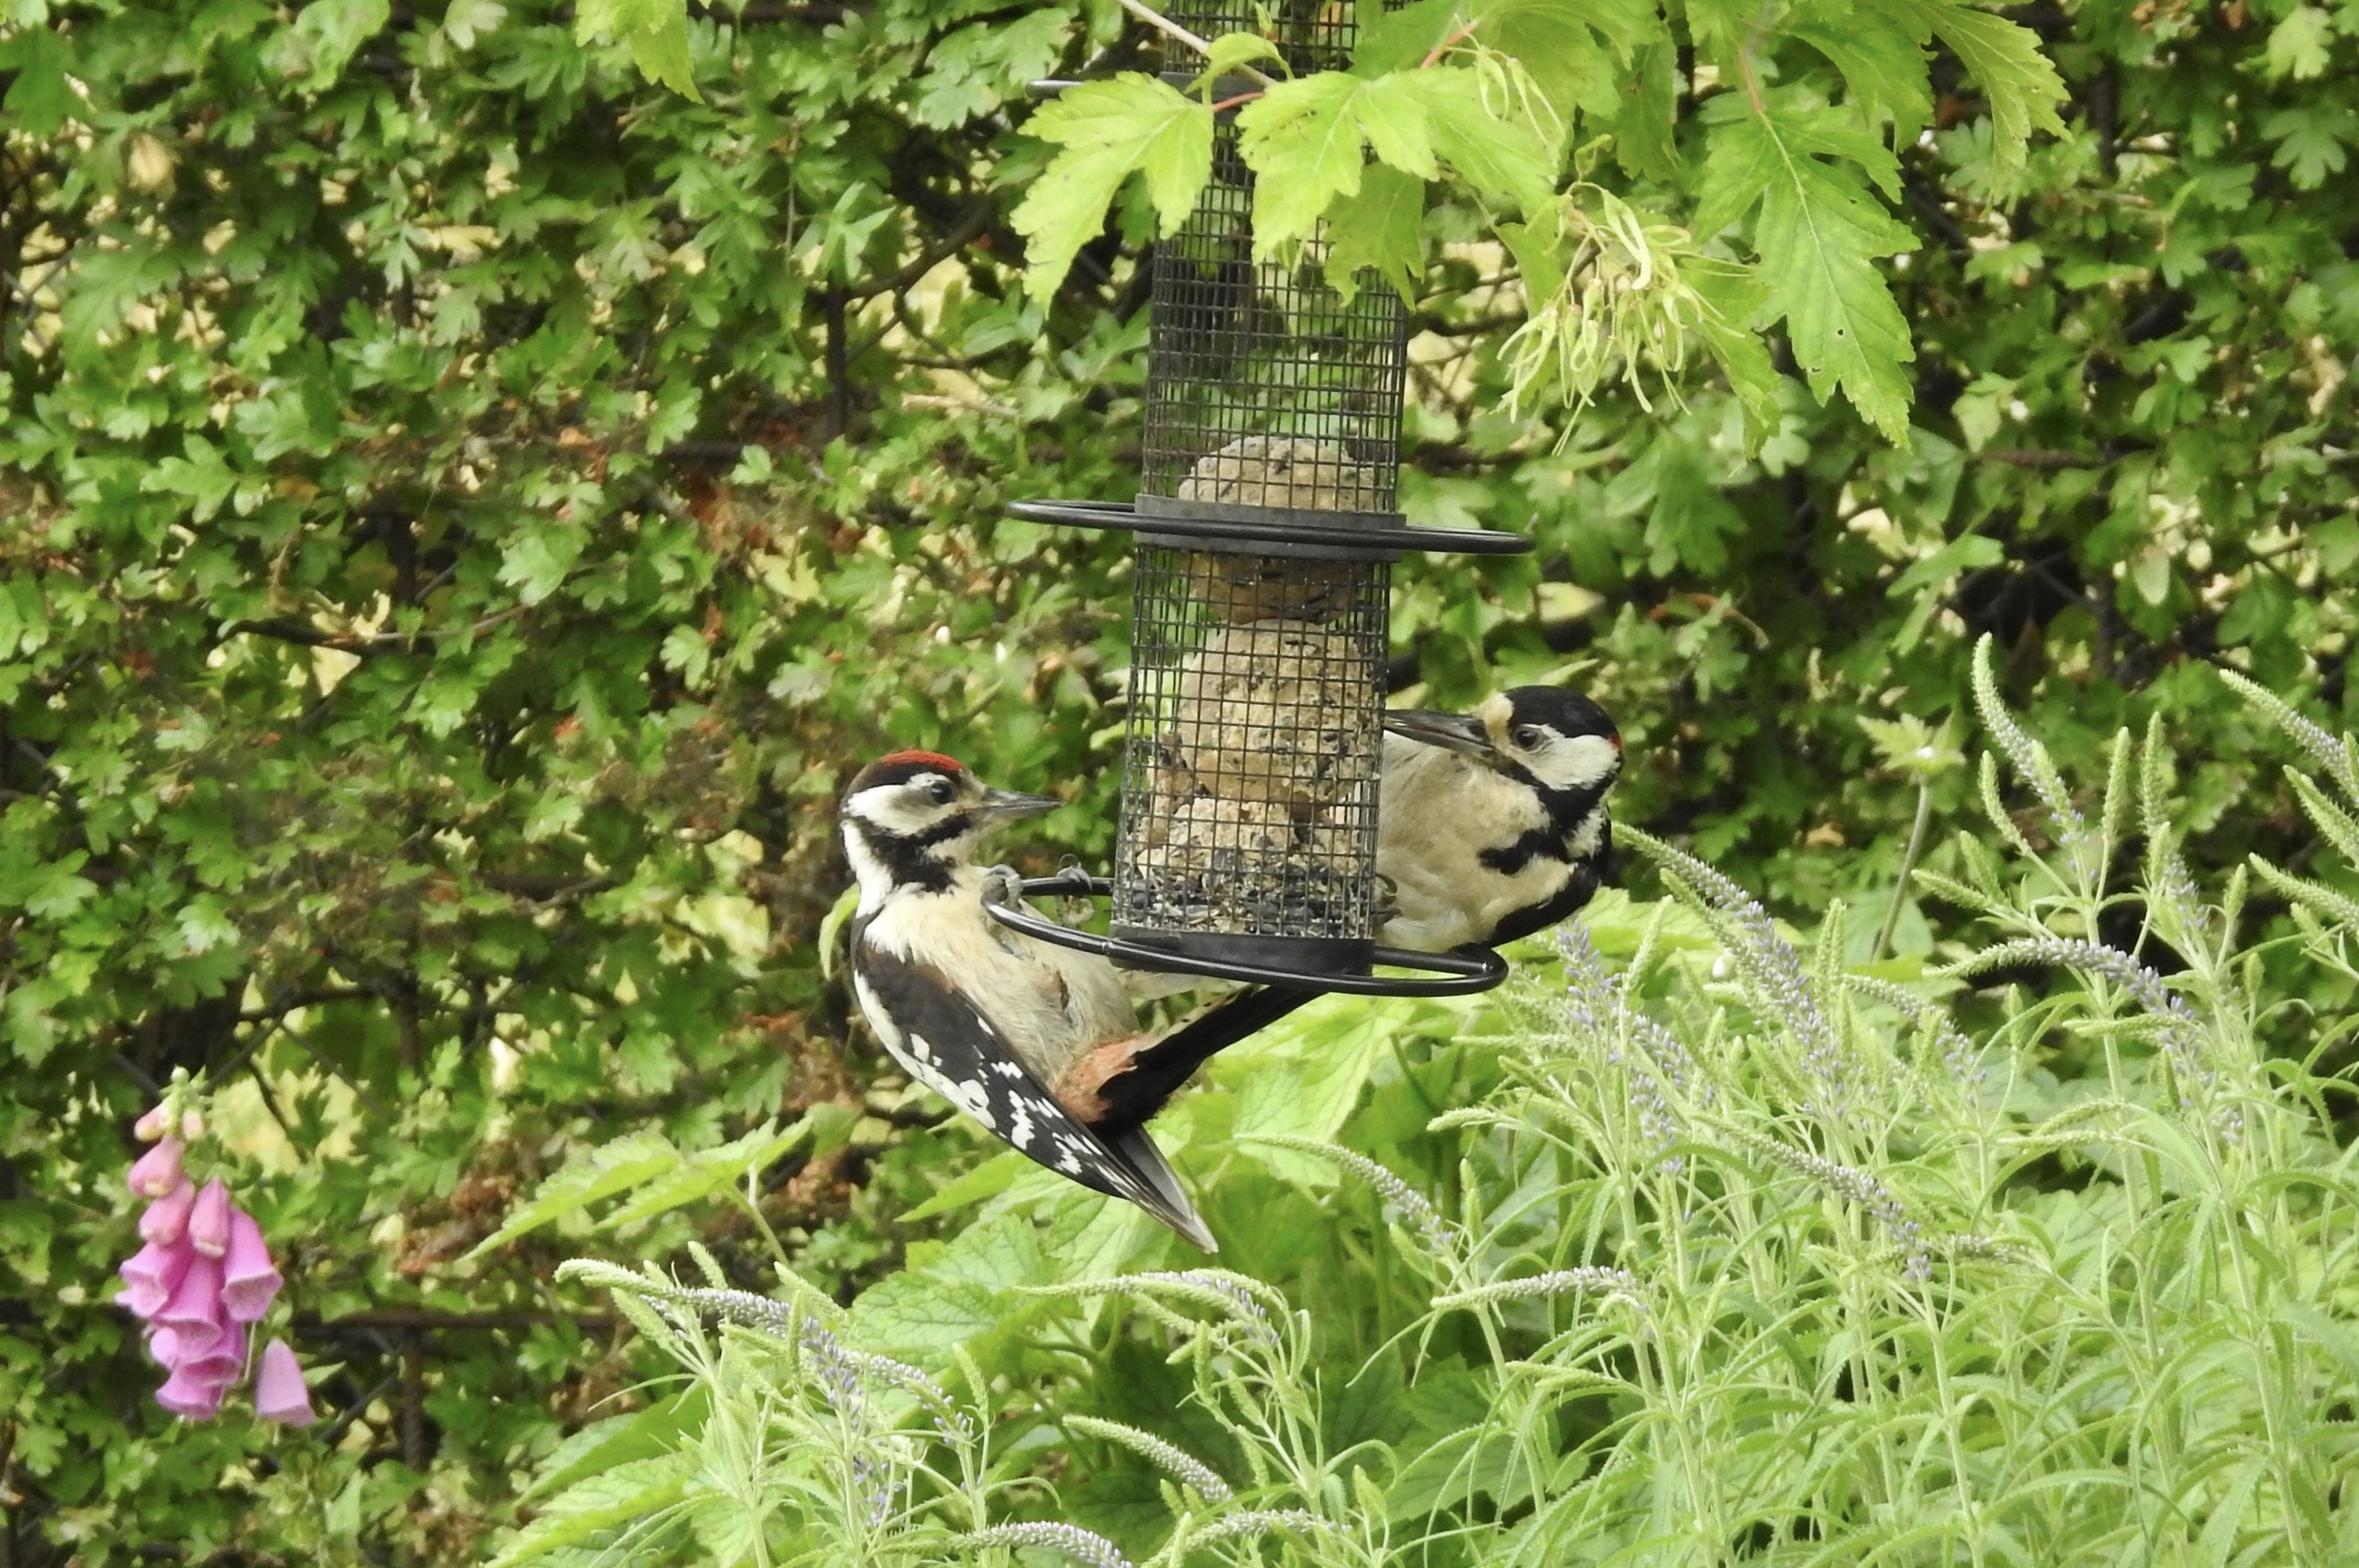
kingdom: Animalia
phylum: Chordata
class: Aves
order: Piciformes
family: Picidae
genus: Dendrocopos
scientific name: Dendrocopos major
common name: Stor flagspætte
